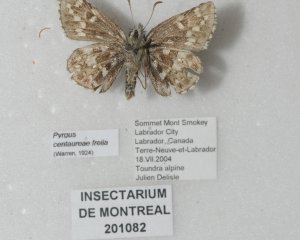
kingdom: Animalia
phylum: Arthropoda
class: Insecta
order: Lepidoptera
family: Hesperiidae
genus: Pyrgus
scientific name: Pyrgus centaureae
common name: Grizzled Skipper
